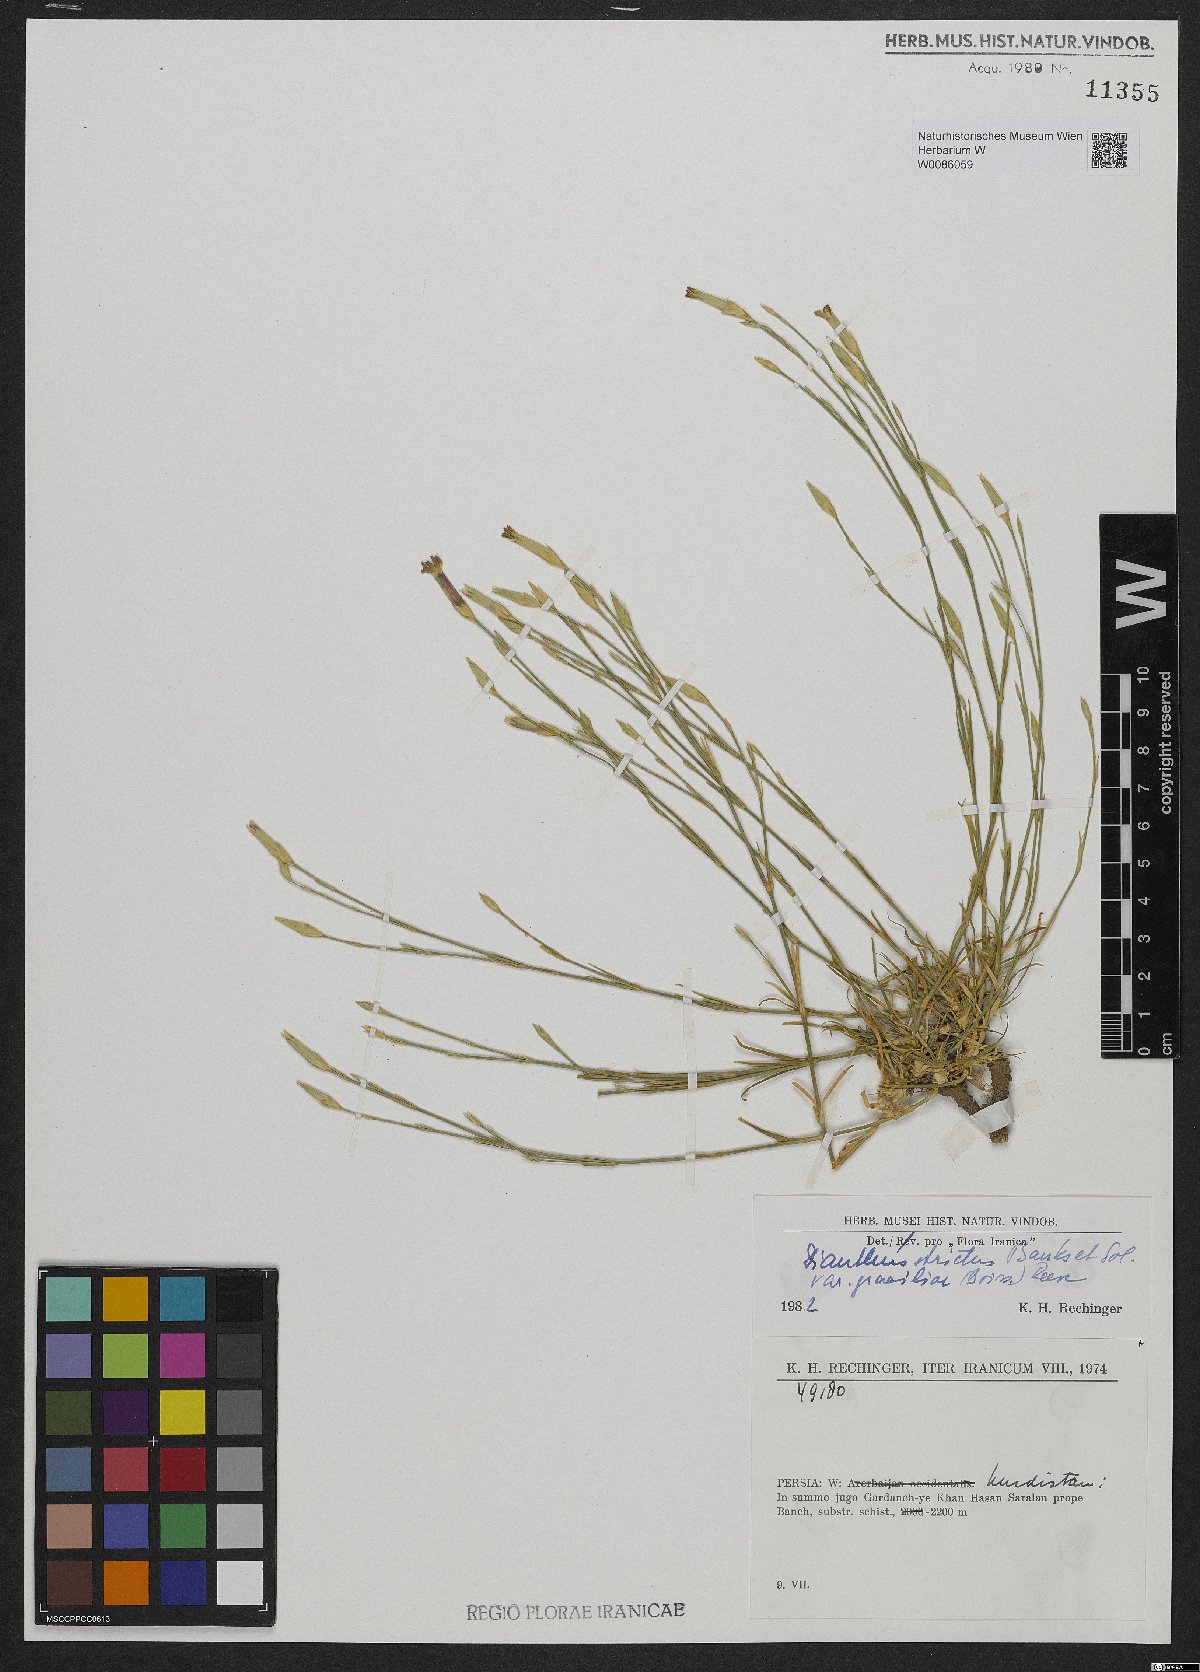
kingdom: Plantae
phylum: Tracheophyta
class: Magnoliopsida
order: Caryophyllales
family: Caryophyllaceae
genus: Dianthus
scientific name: Dianthus strictus
